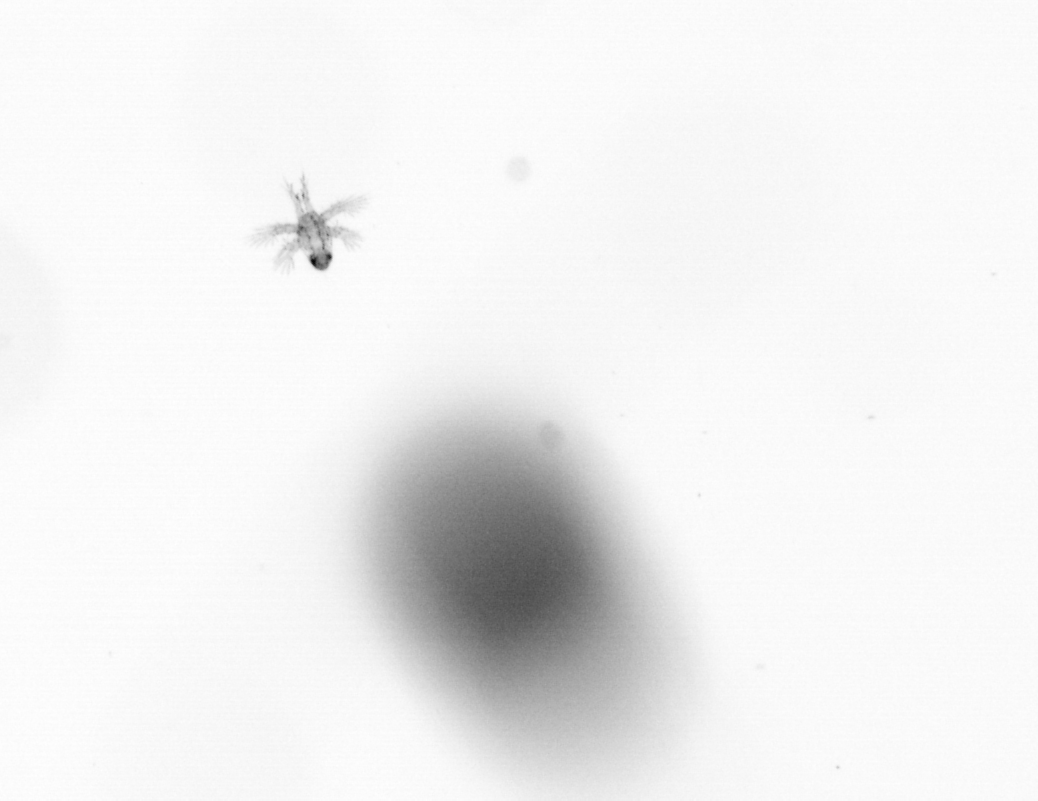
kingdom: Animalia
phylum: Arthropoda
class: Copepoda
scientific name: Copepoda
